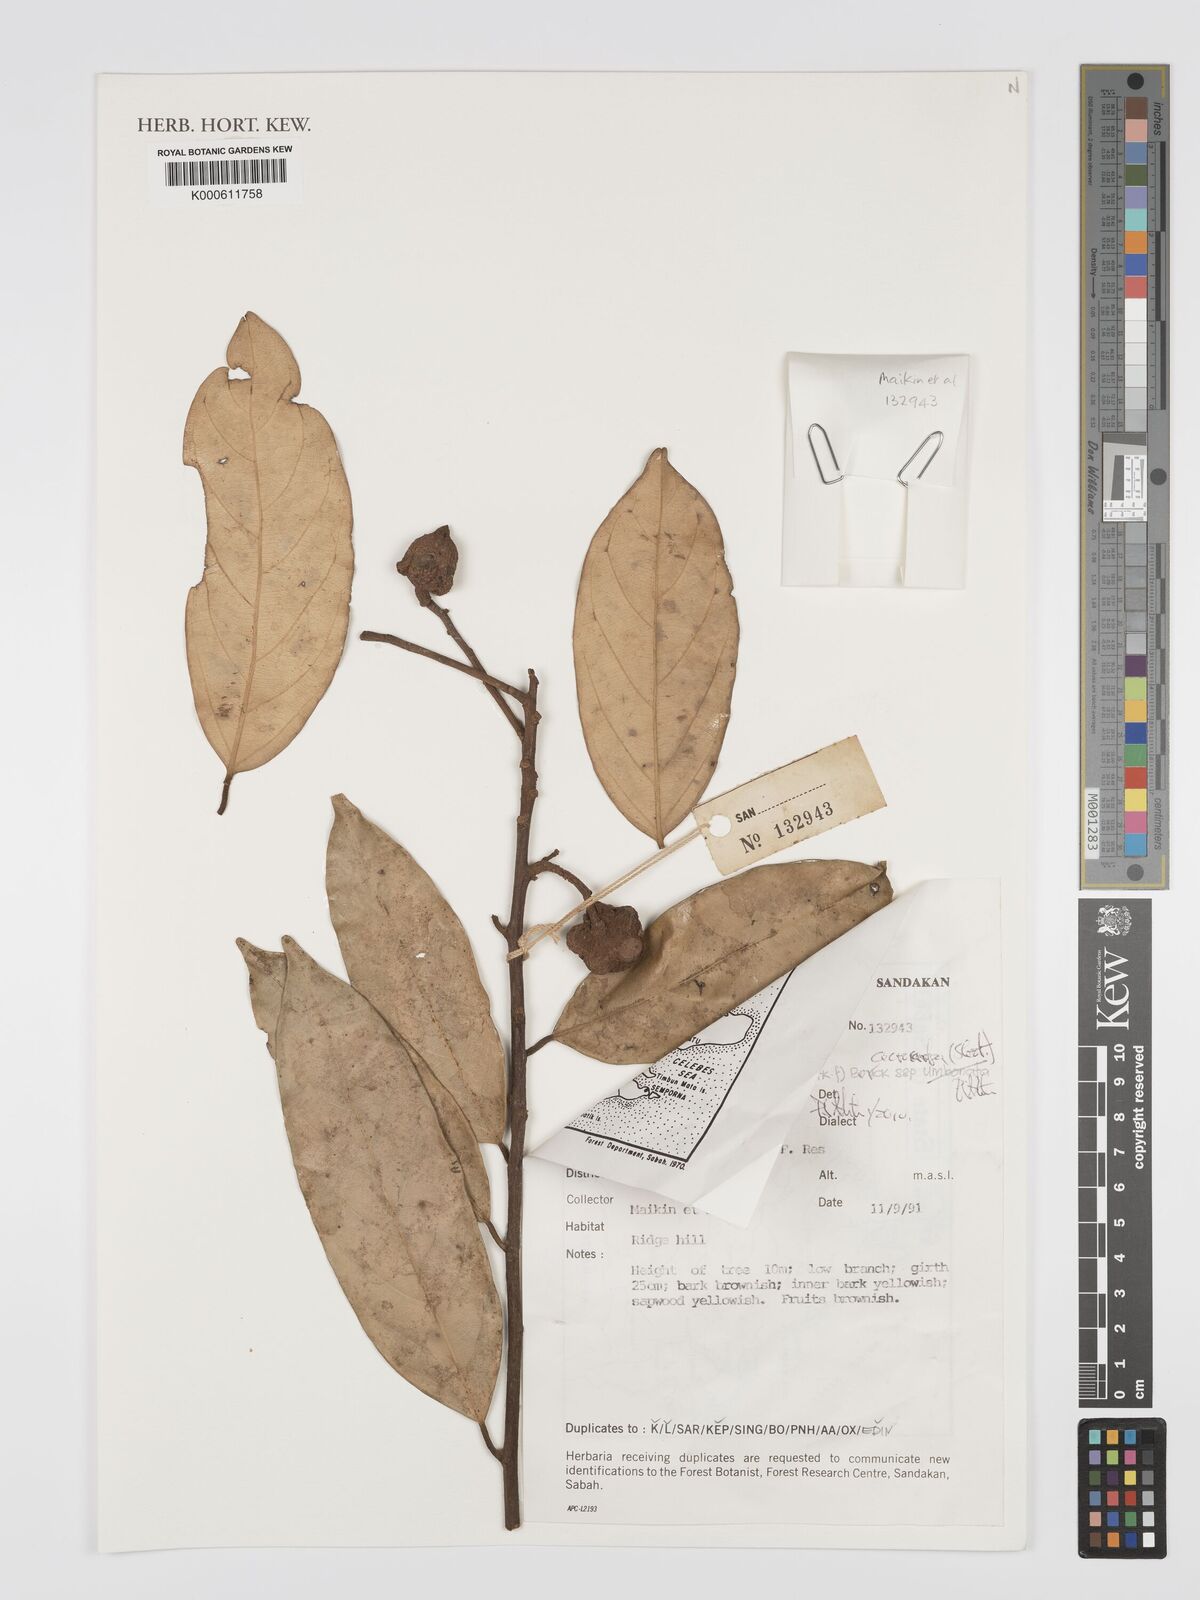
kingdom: Plantae
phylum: Tracheophyta
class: Magnoliopsida
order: Malvales
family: Dipterocarpaceae
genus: Vatica
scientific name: Vatica umbonata
